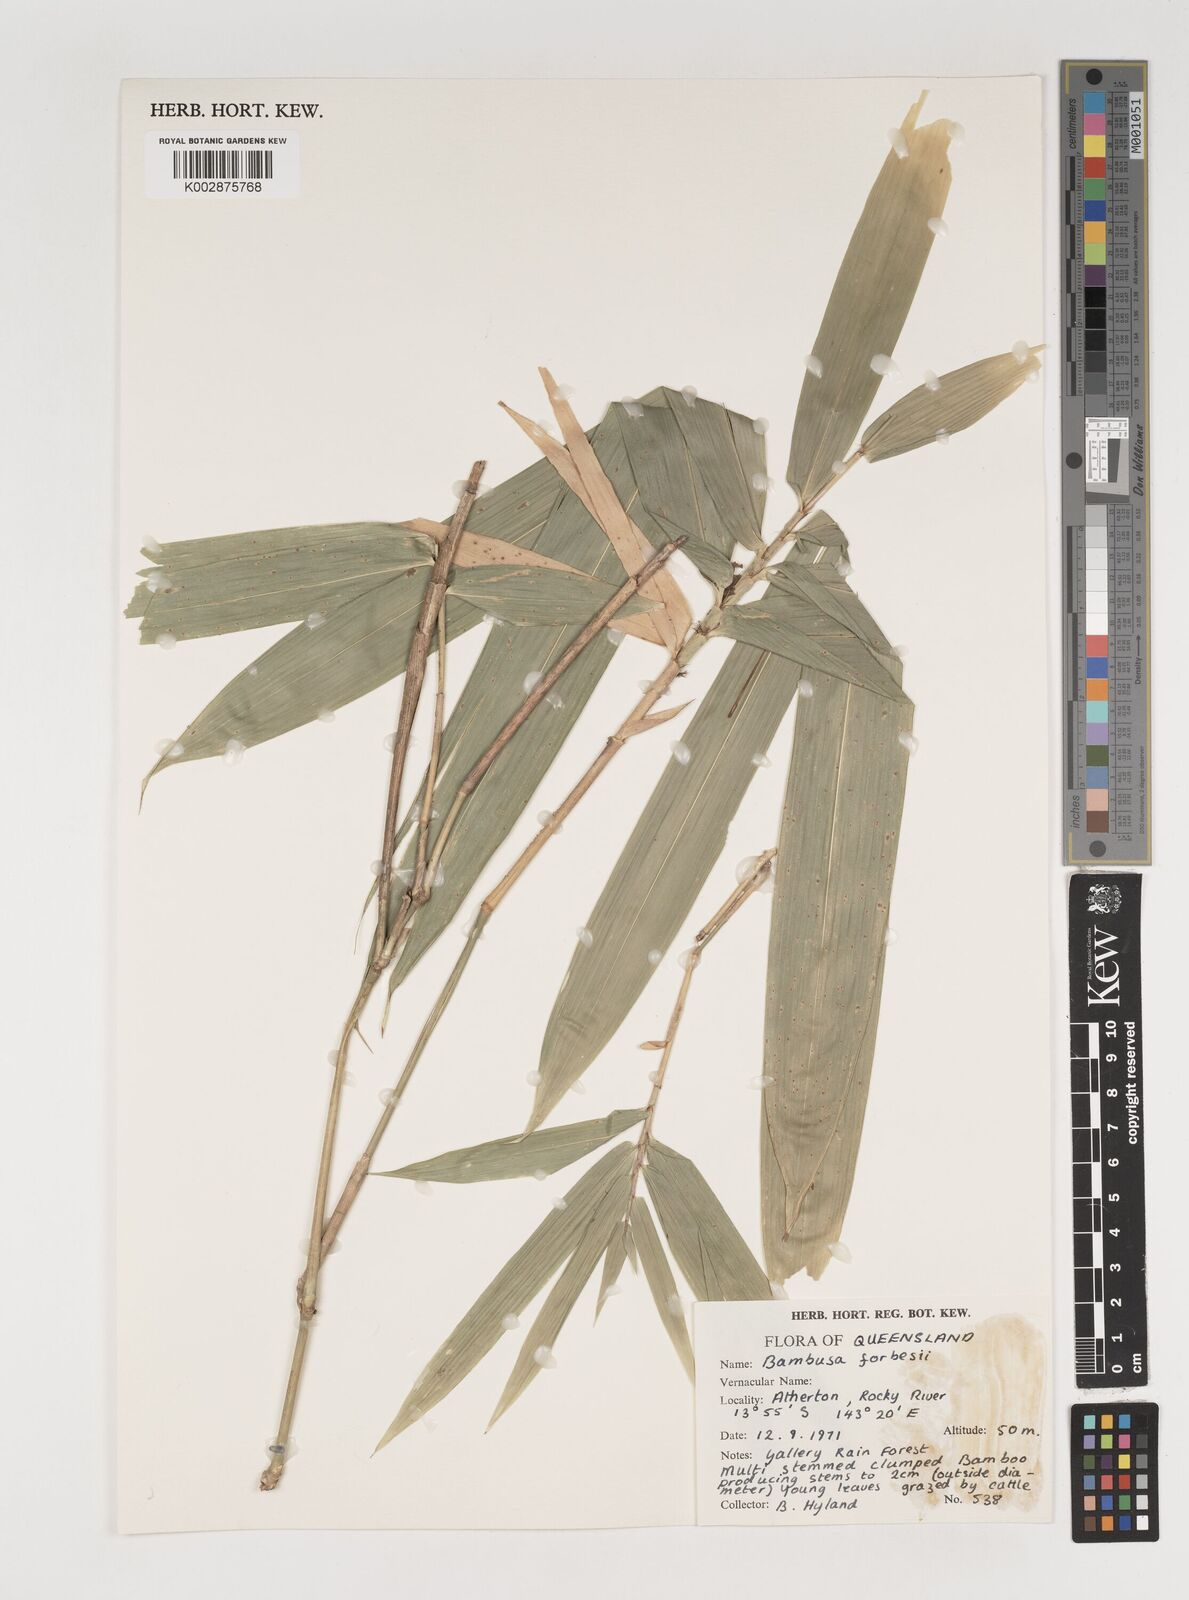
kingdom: Plantae
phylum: Tracheophyta
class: Liliopsida
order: Poales
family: Poaceae
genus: Neololeba
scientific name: Neololeba atra
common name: Cape bamboo
